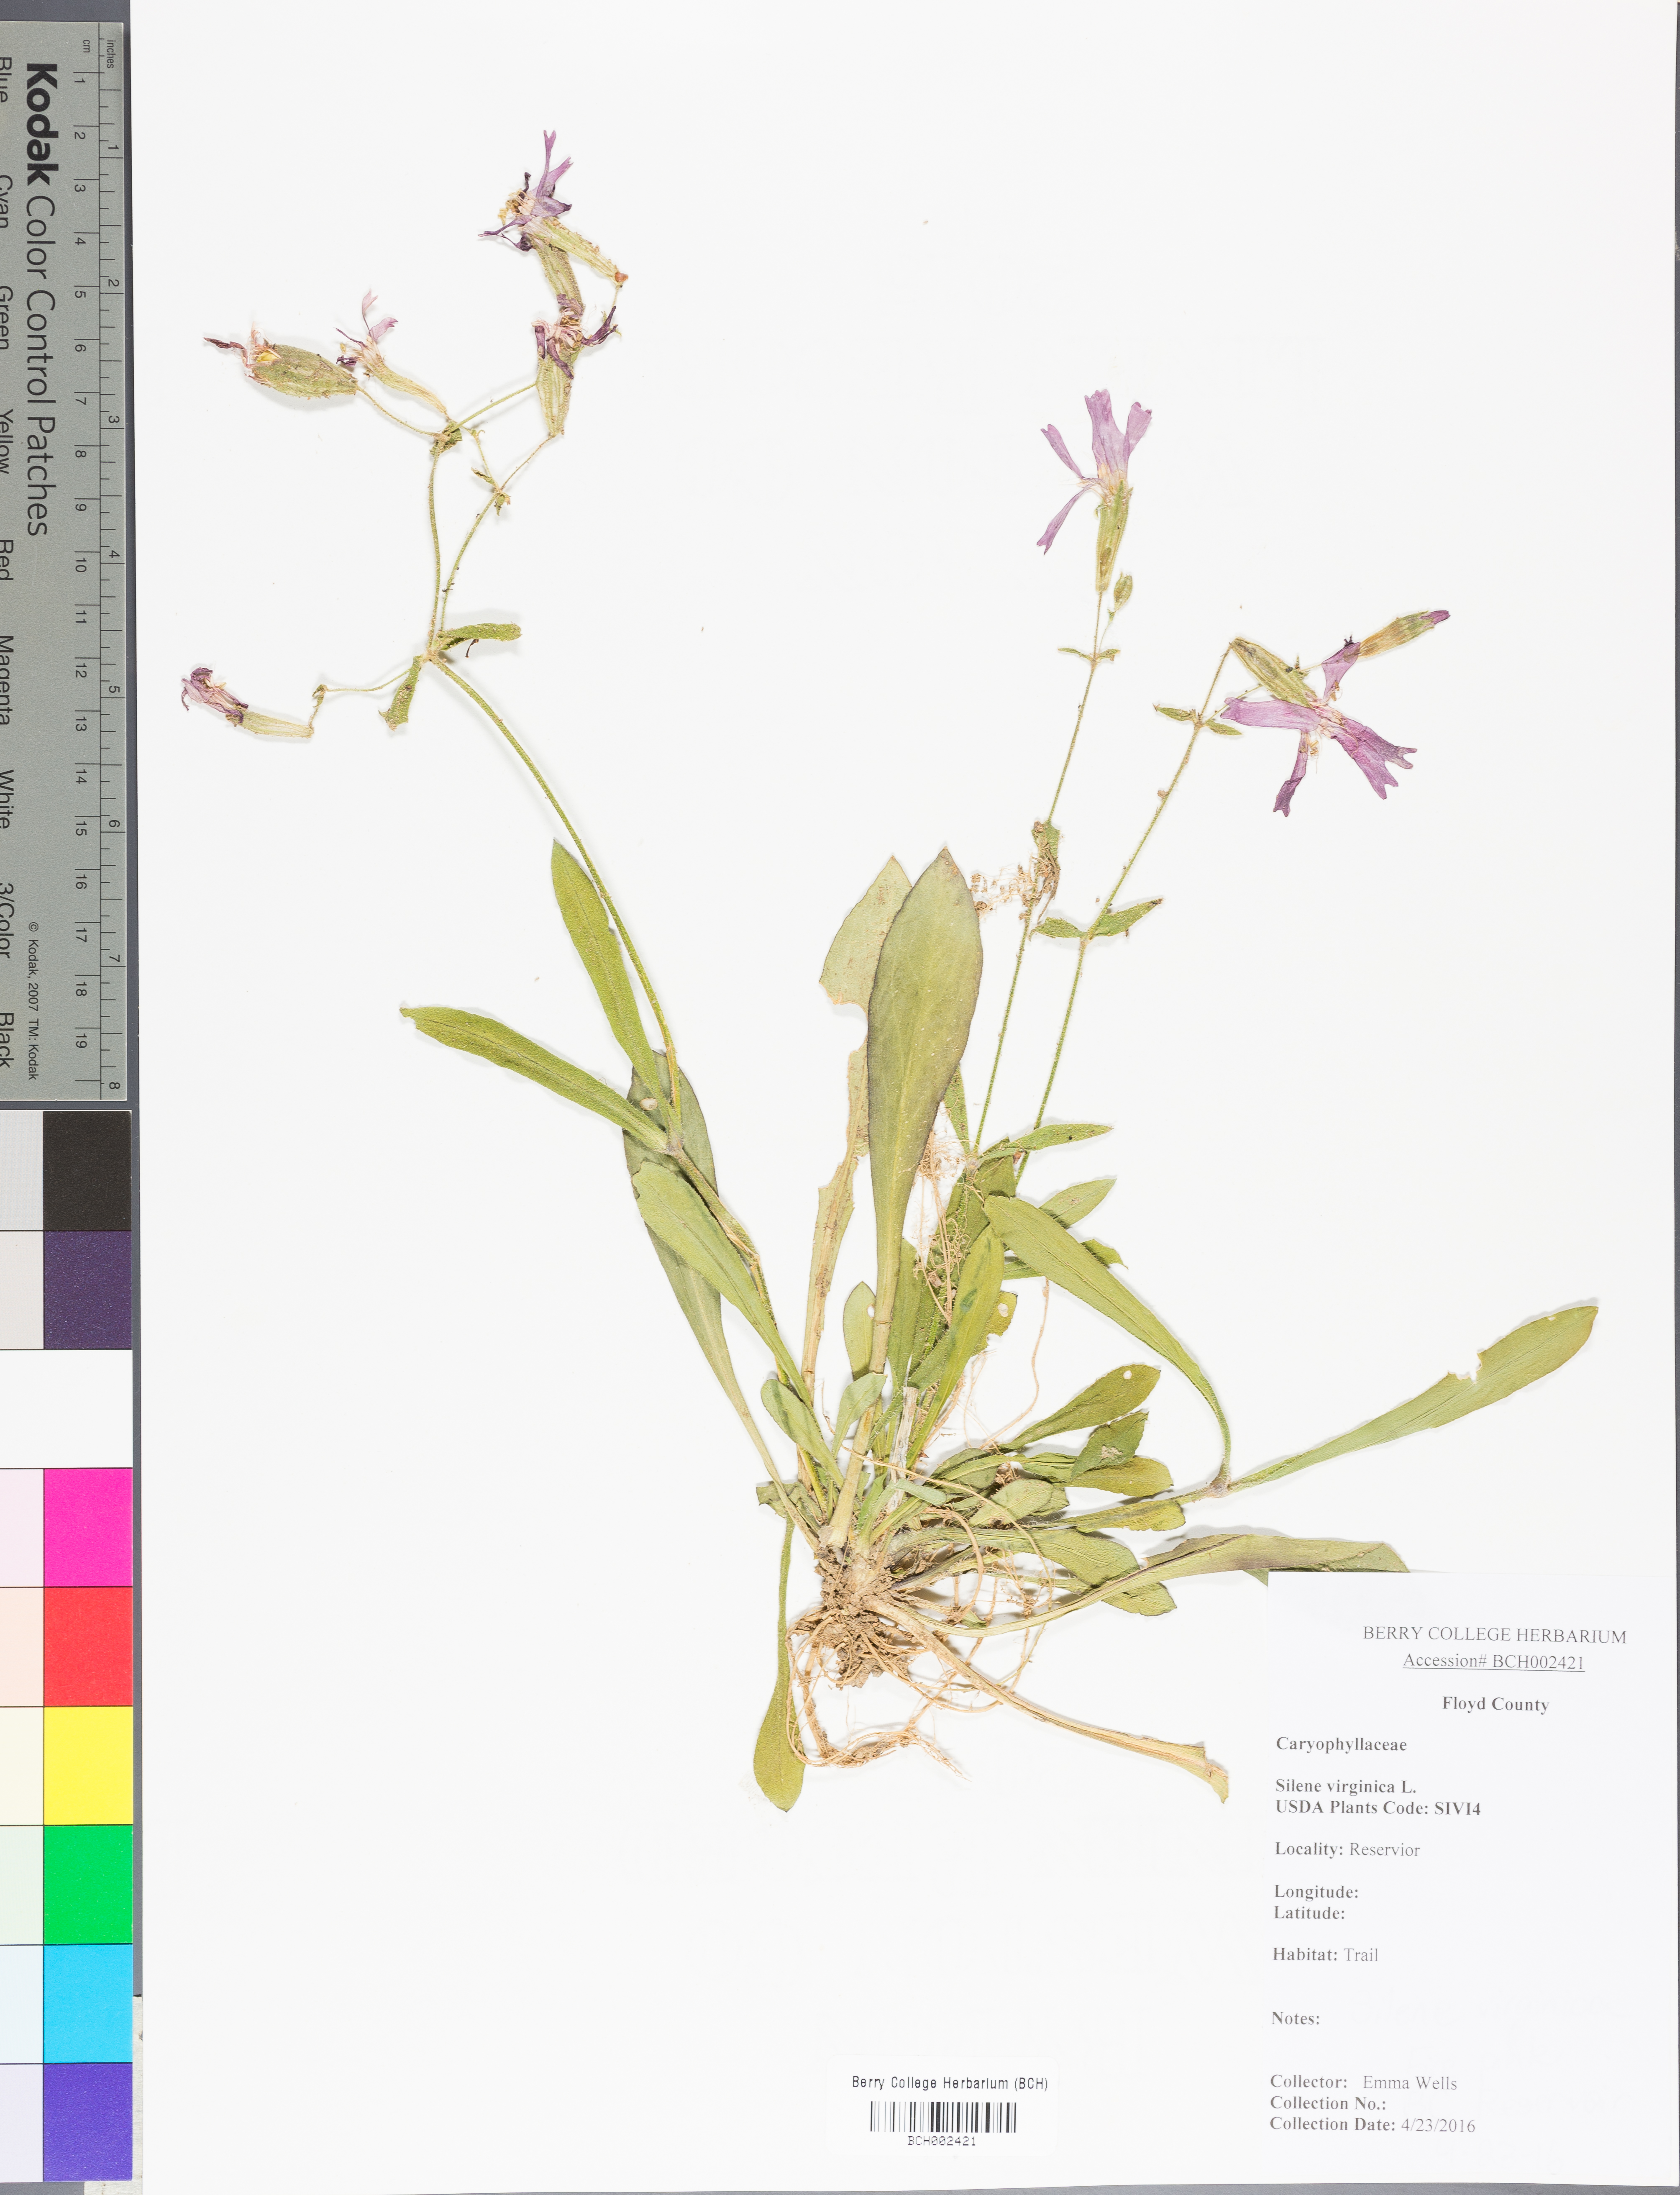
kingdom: Plantae
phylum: Tracheophyta
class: Magnoliopsida
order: Caryophyllales
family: Caryophyllaceae
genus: Silene
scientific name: Silene virginica
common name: Fire-pink
